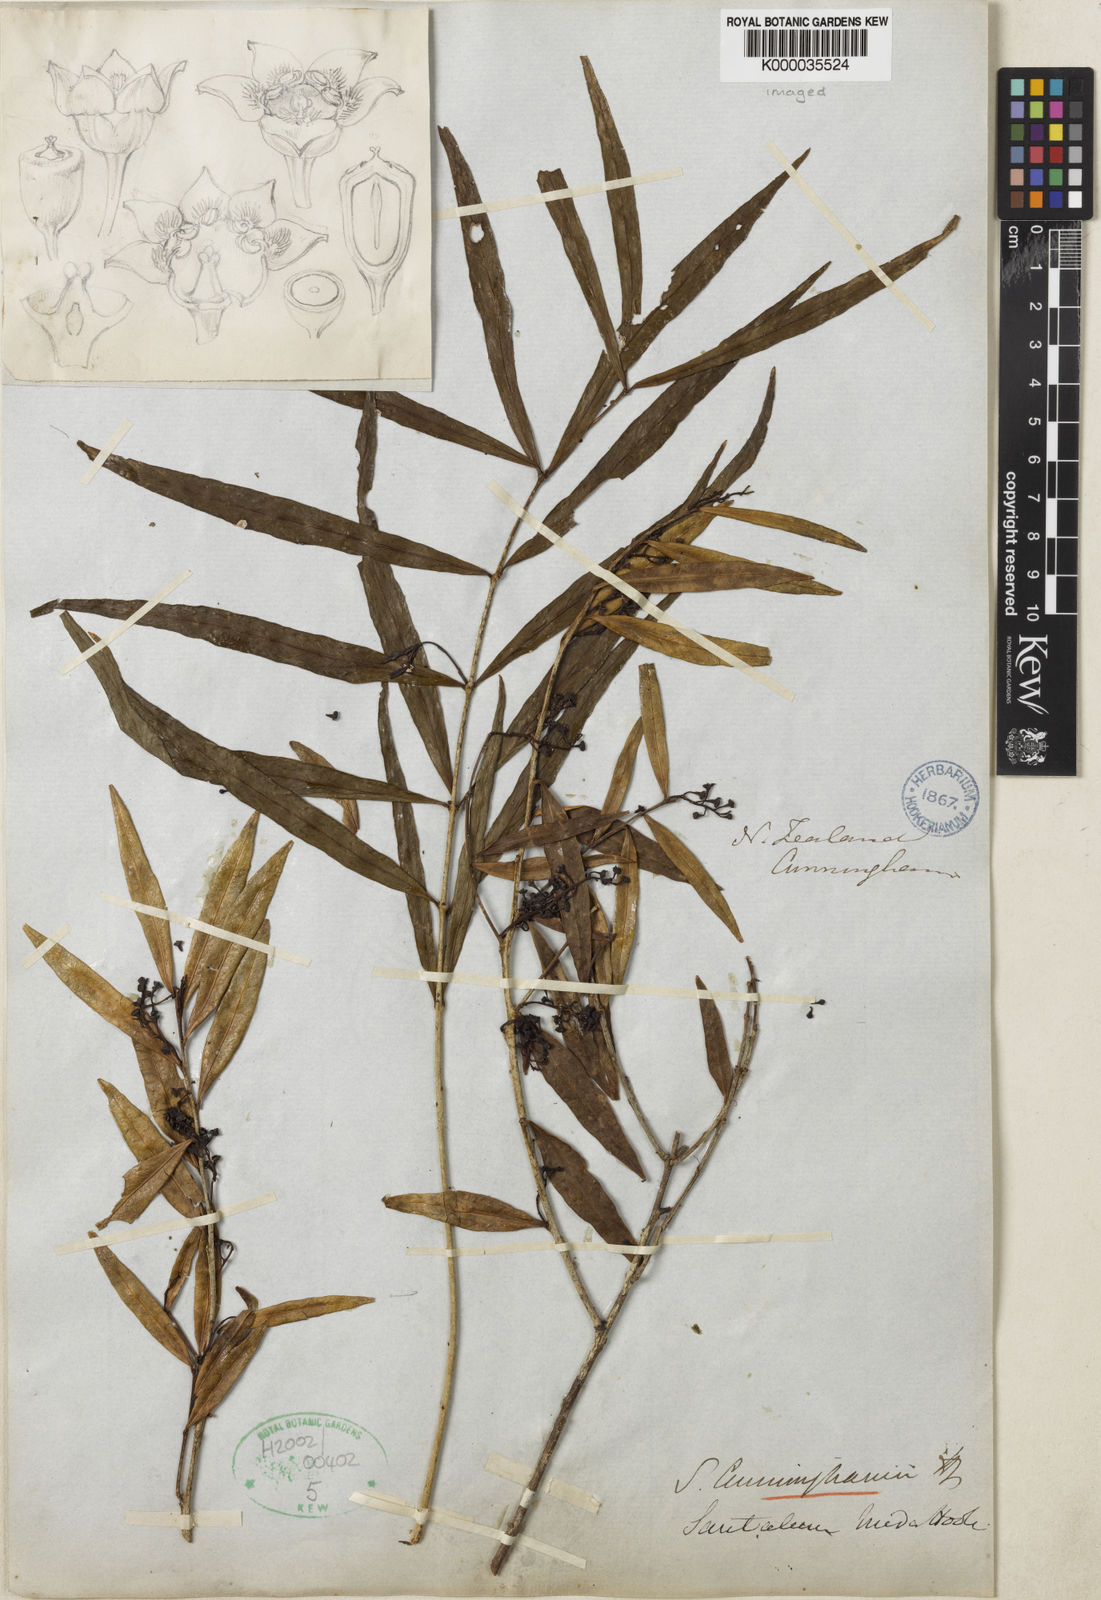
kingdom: Plantae
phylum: Tracheophyta
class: Magnoliopsida
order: Santalales
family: Nanodeaceae
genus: Mida
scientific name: Mida salicifolia
